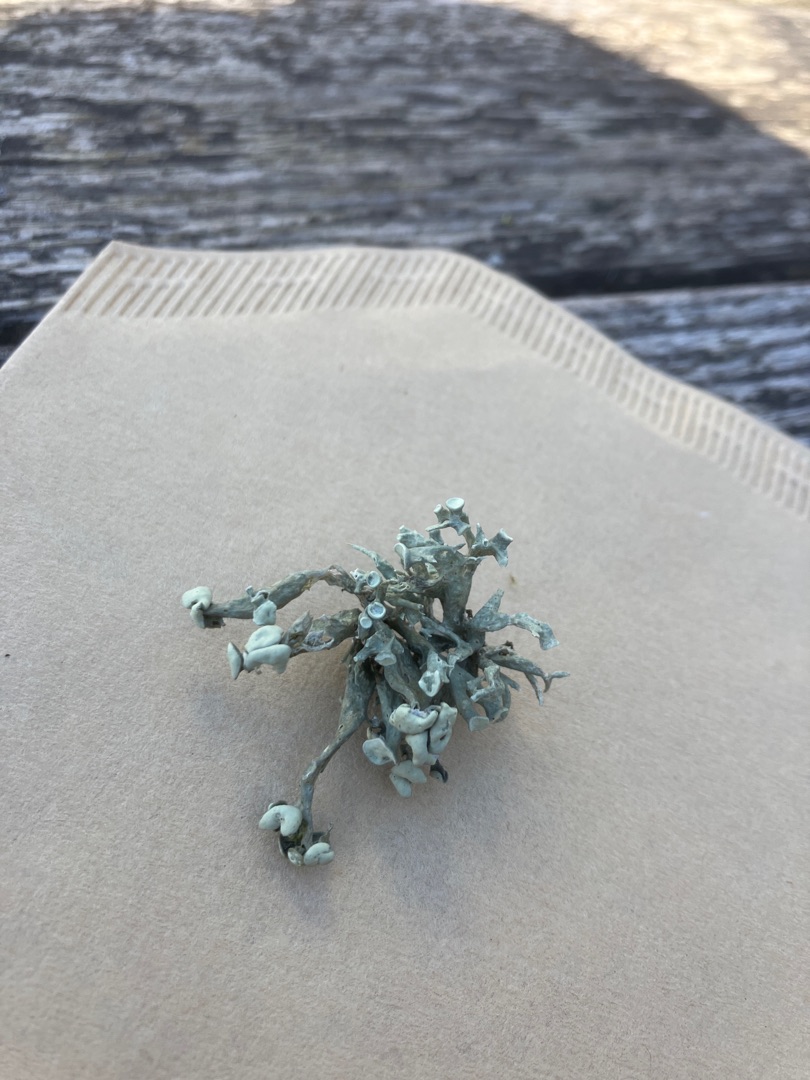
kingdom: Fungi
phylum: Ascomycota
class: Lecanoromycetes
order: Lecanorales
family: Ramalinaceae
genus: Ramalina
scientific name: Ramalina fastigiata
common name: Tue-grenlav
